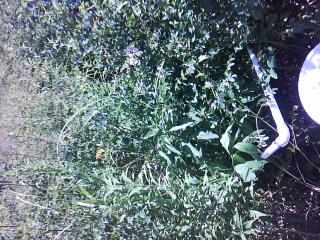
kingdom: Plantae
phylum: Tracheophyta
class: Liliopsida
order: Poales
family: Cyperaceae
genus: Carex
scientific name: Carex leptalea
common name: Bristly-stalked sedge
